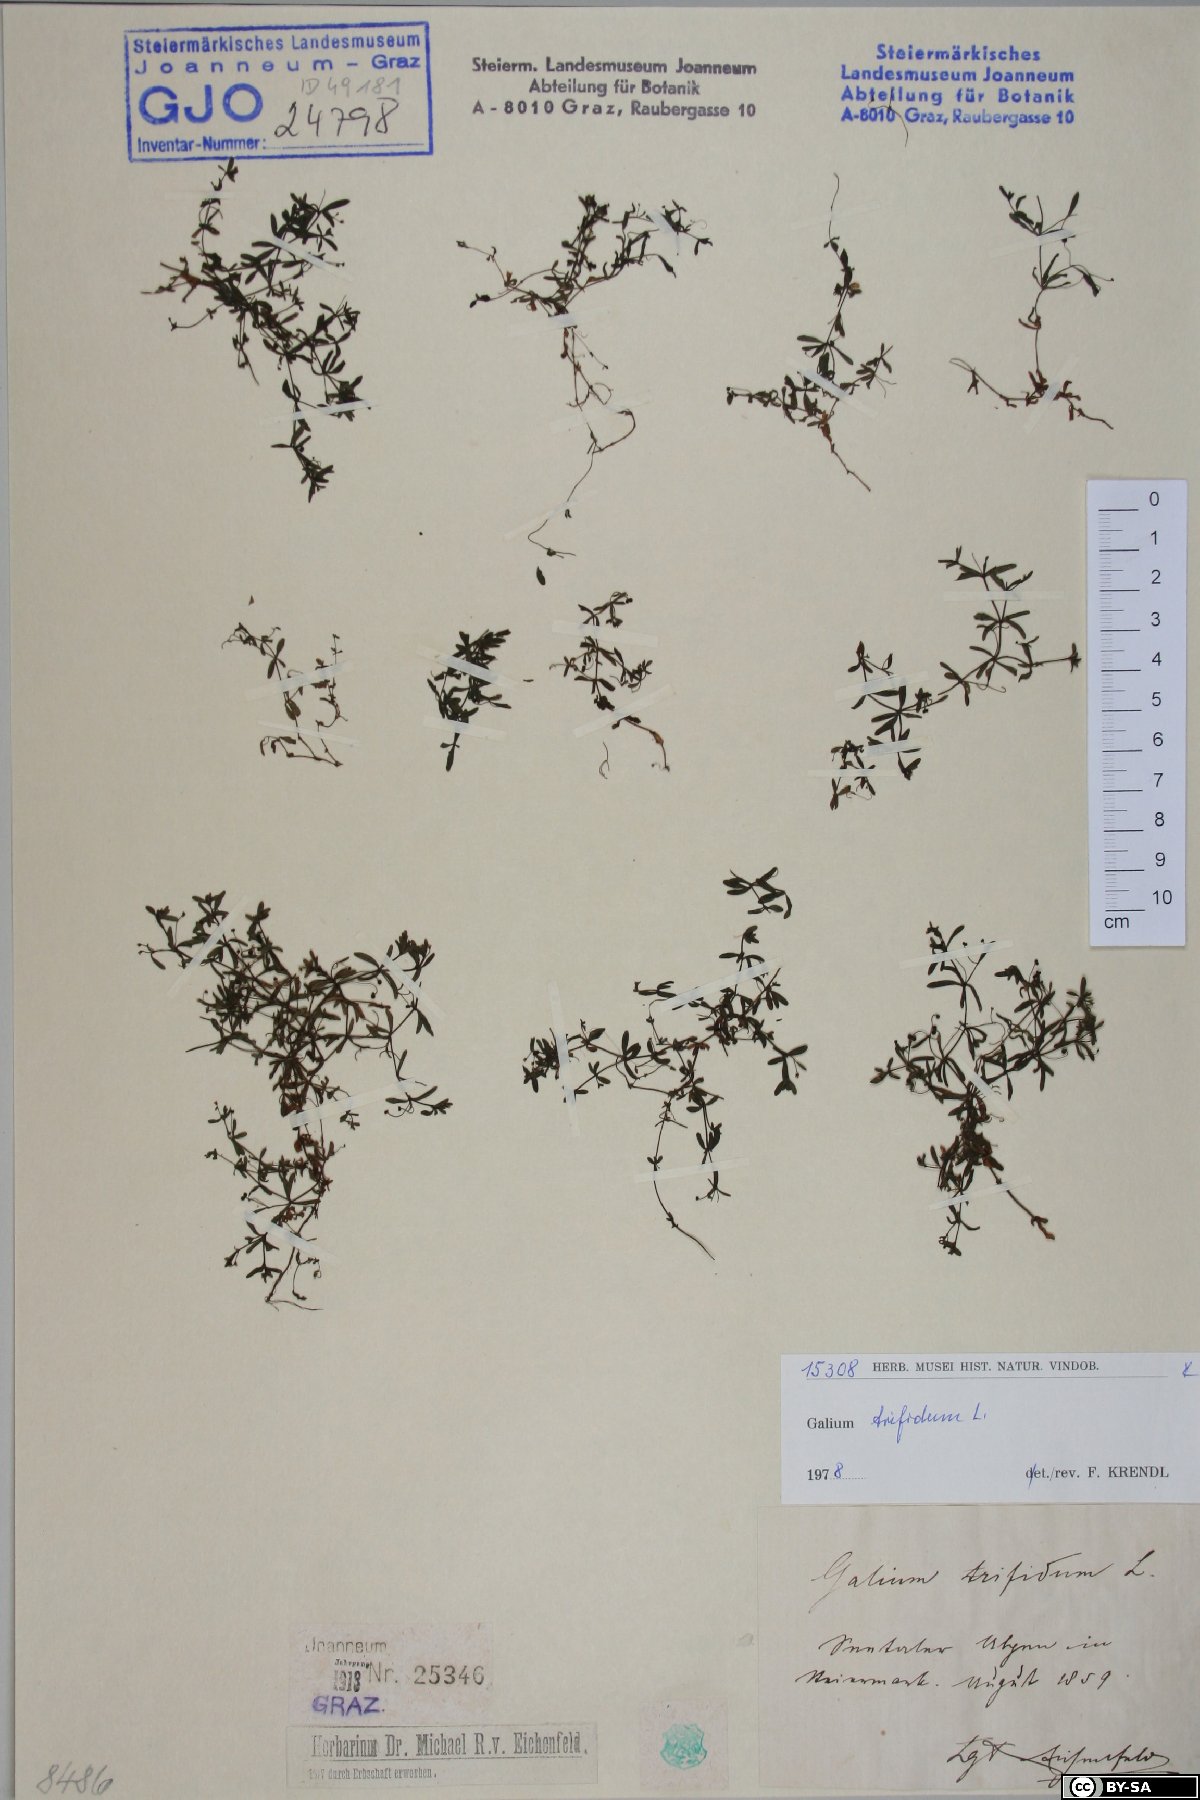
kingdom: Plantae
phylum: Tracheophyta
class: Magnoliopsida
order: Gentianales
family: Rubiaceae
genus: Galium
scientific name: Galium trifidum
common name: Small bedstraw
